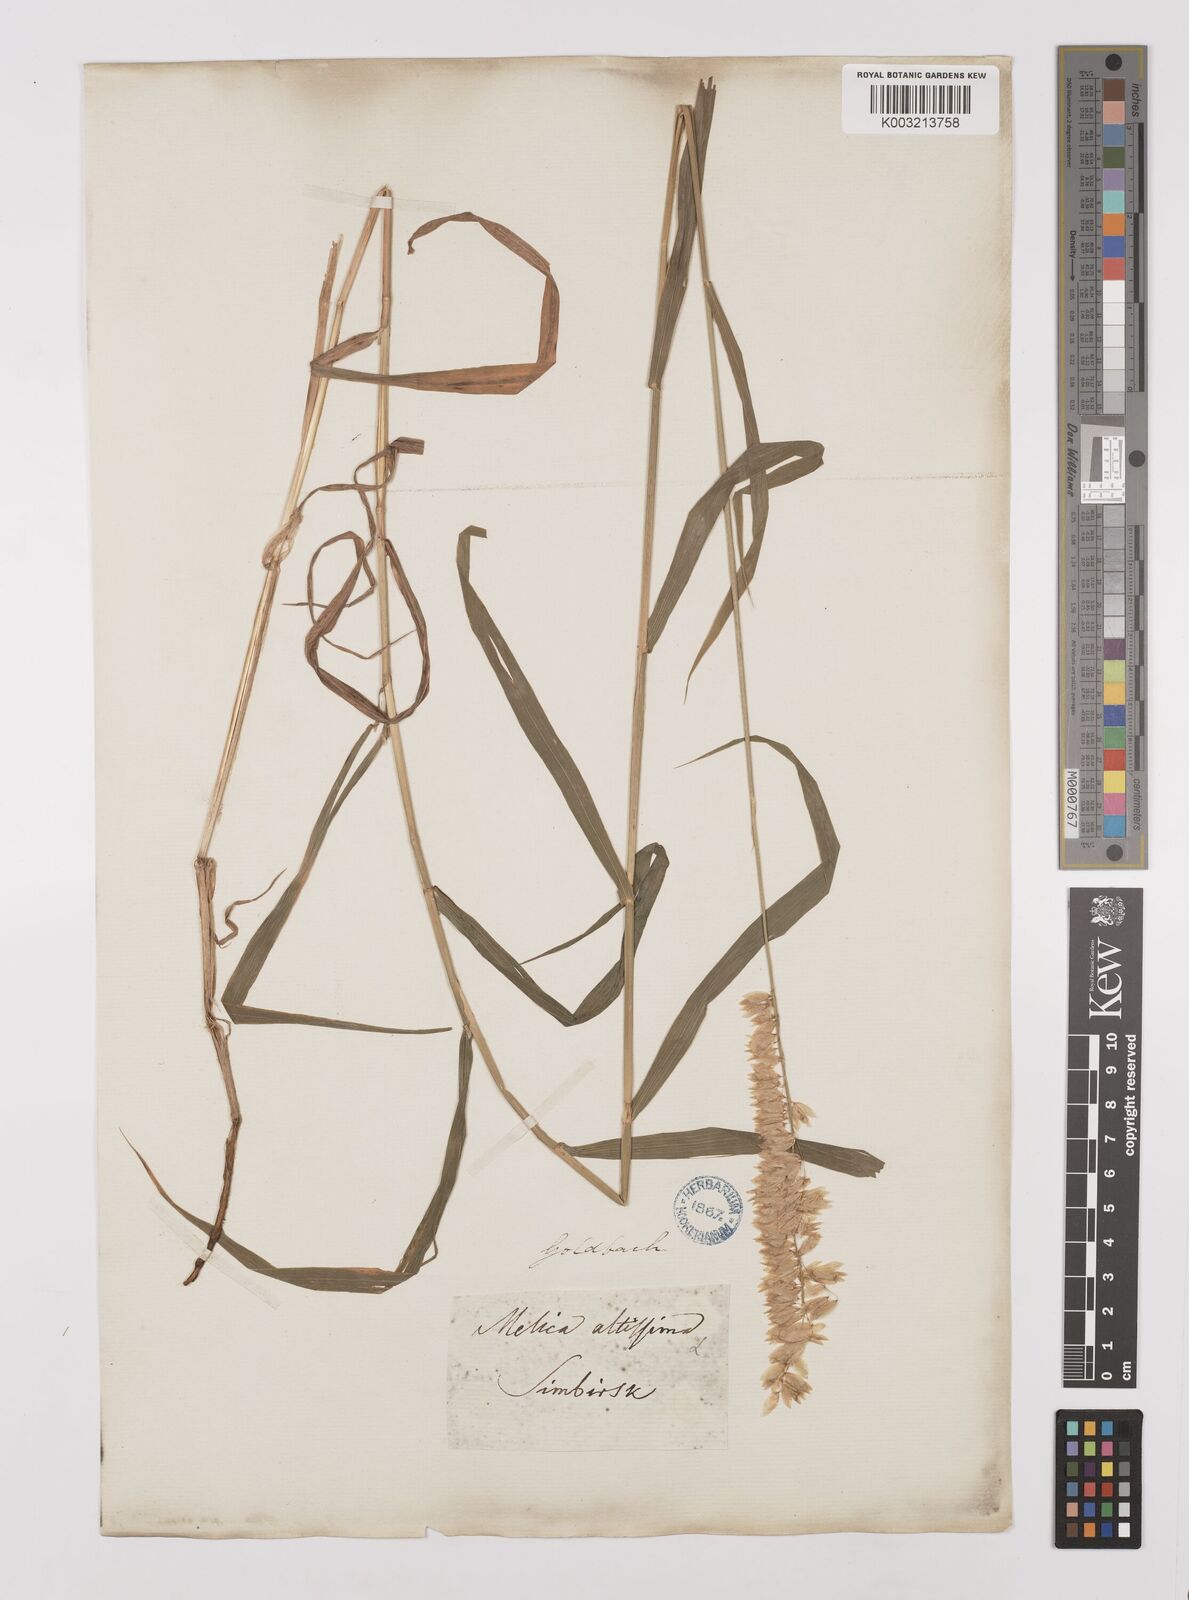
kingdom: Plantae
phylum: Tracheophyta
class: Liliopsida
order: Poales
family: Poaceae
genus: Melica
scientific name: Melica
